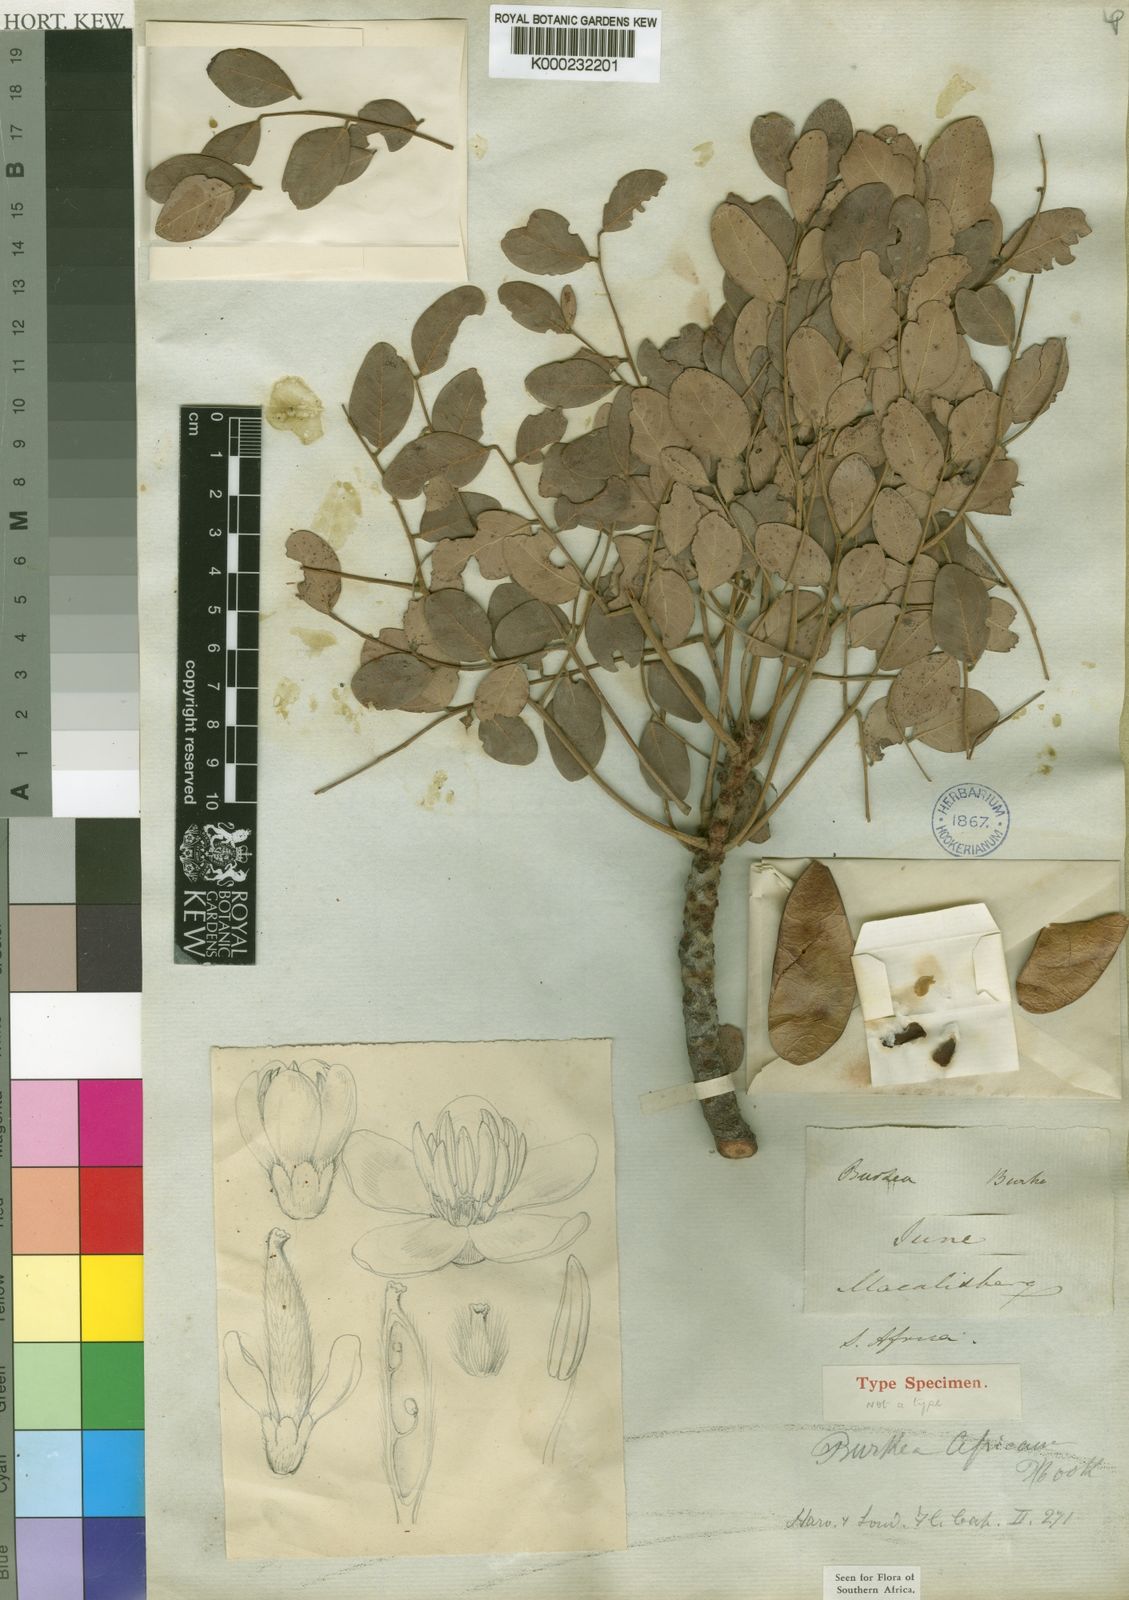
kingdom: Plantae
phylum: Tracheophyta
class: Magnoliopsida
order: Fabales
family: Fabaceae
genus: Burkea
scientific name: Burkea africana
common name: Mkalati tree
